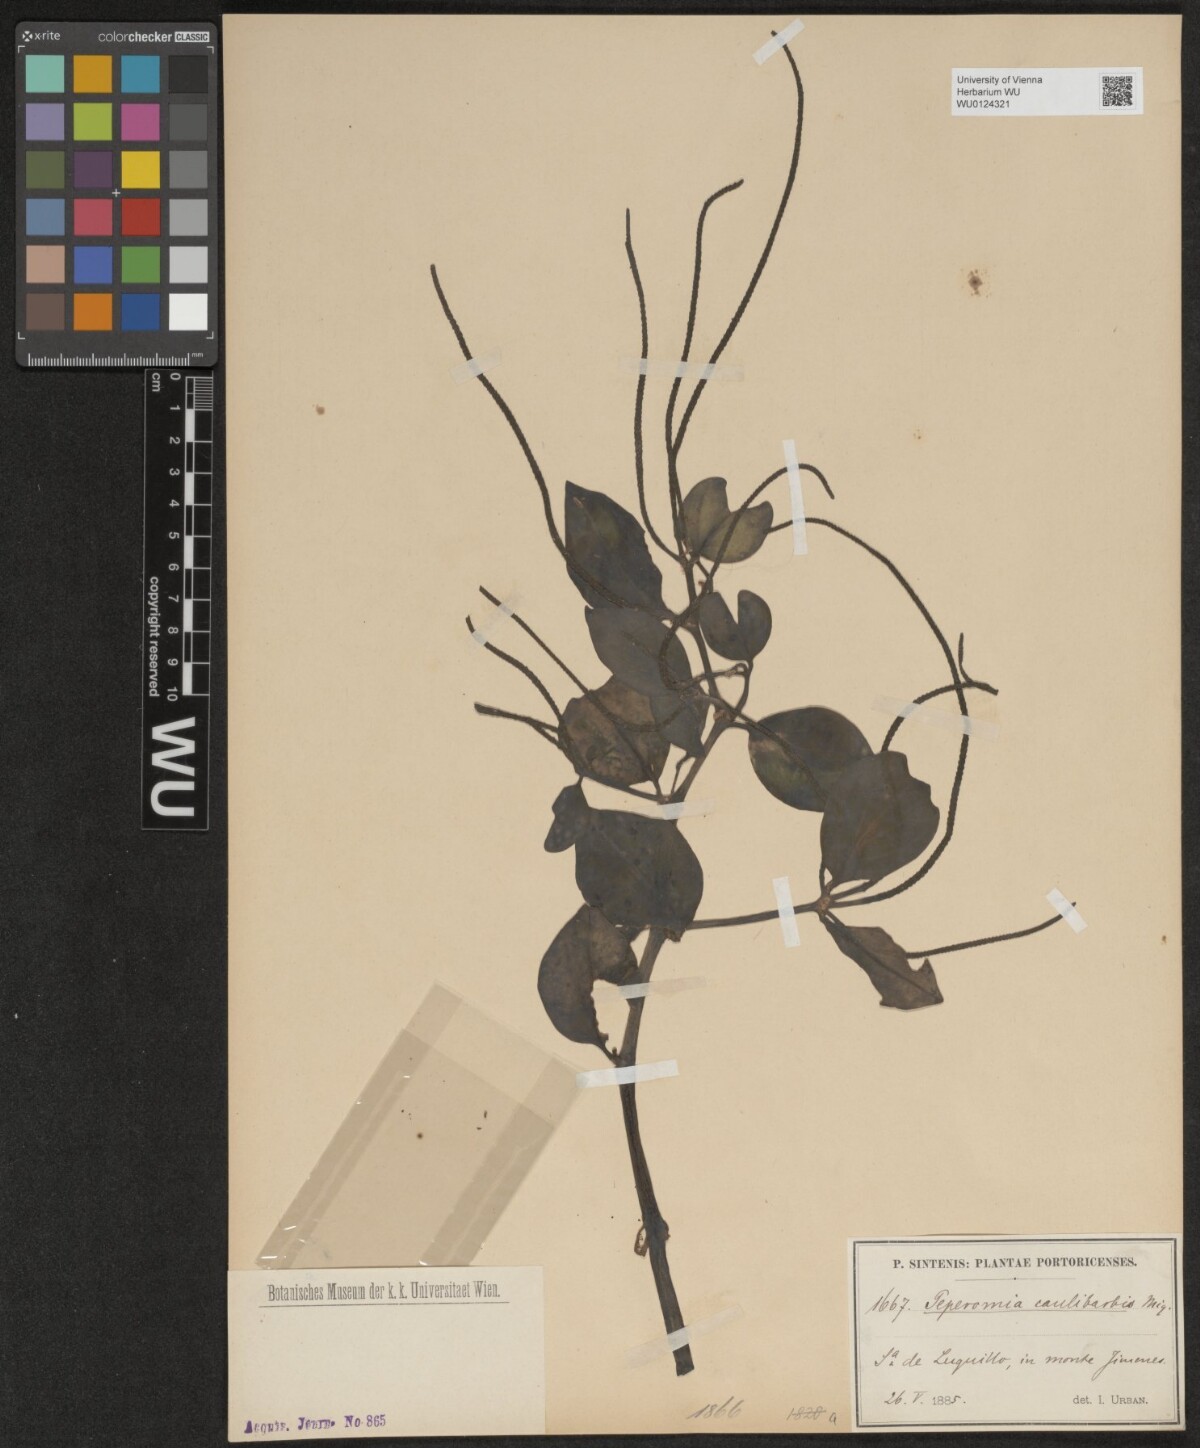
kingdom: Plantae
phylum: Tracheophyta
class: Magnoliopsida
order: Piperales
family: Piperaceae
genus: Peperomia
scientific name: Peperomia glabella
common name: Cypress peperomia
